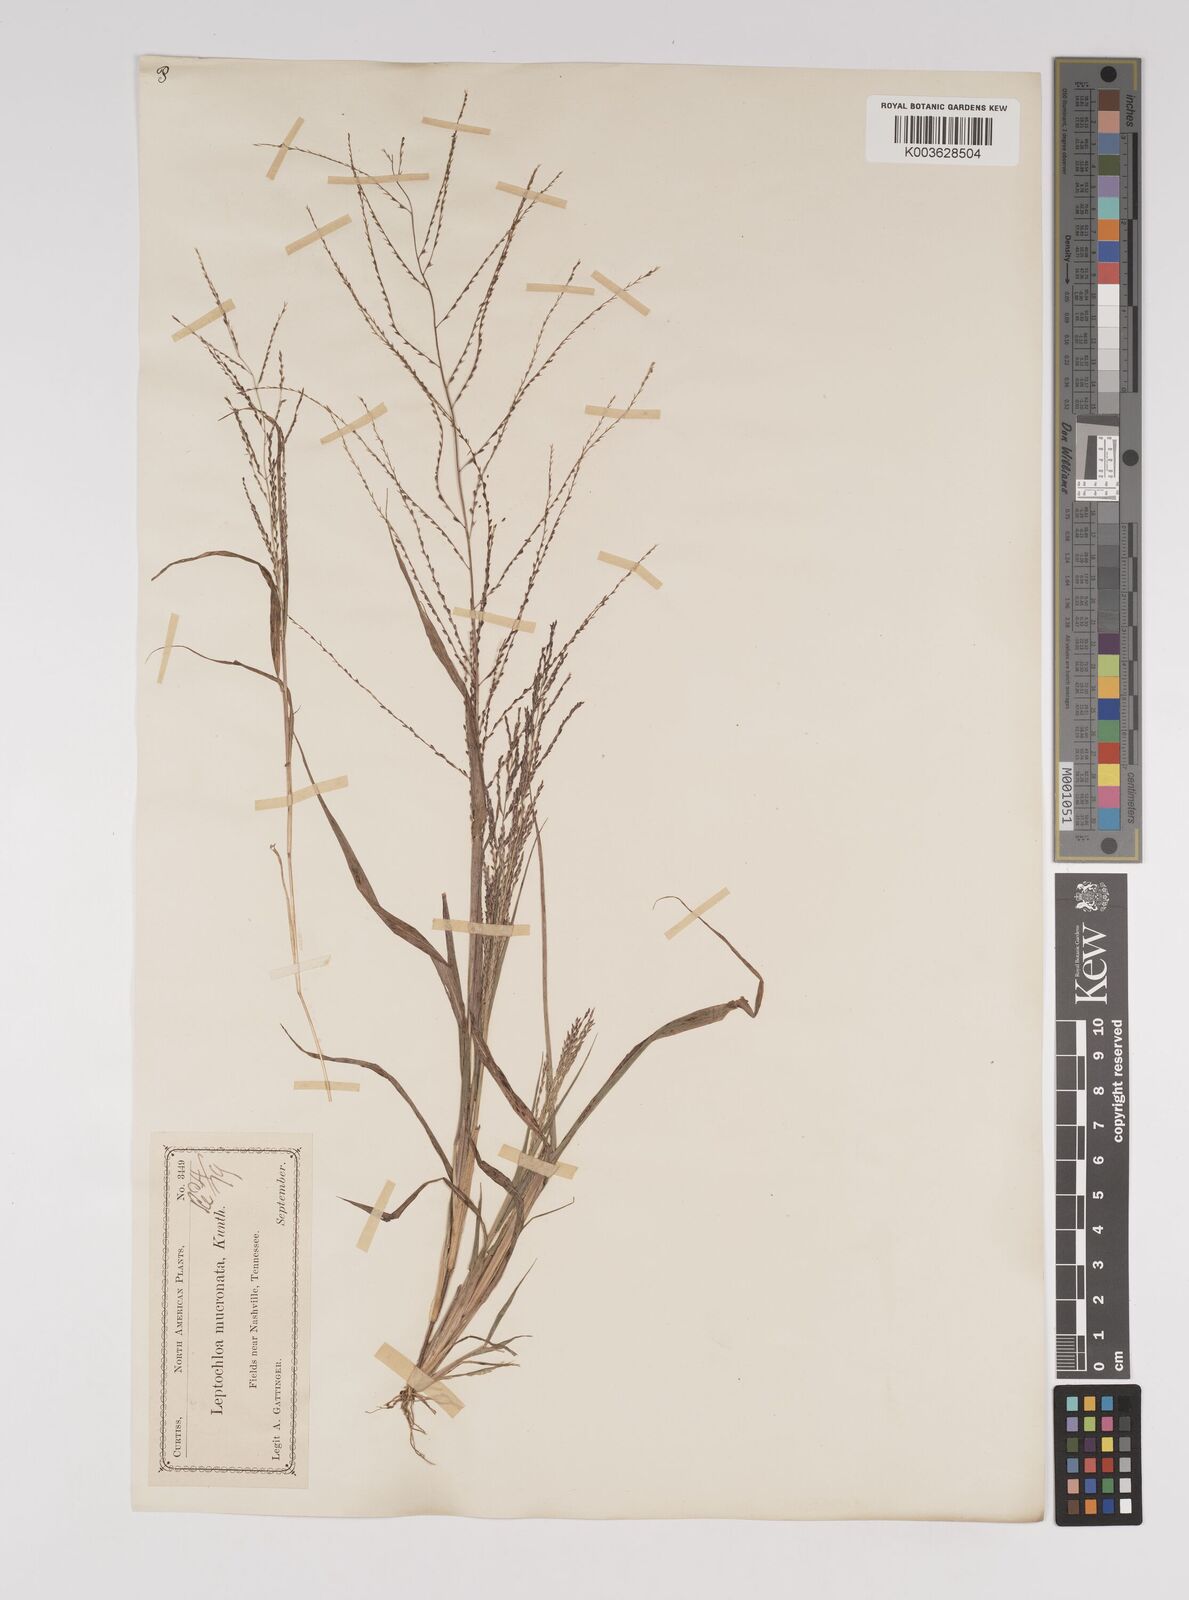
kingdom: Plantae
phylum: Tracheophyta
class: Liliopsida
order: Poales
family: Poaceae
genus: Leptochloa
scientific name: Leptochloa panicea
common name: Mucronate sprangletop
